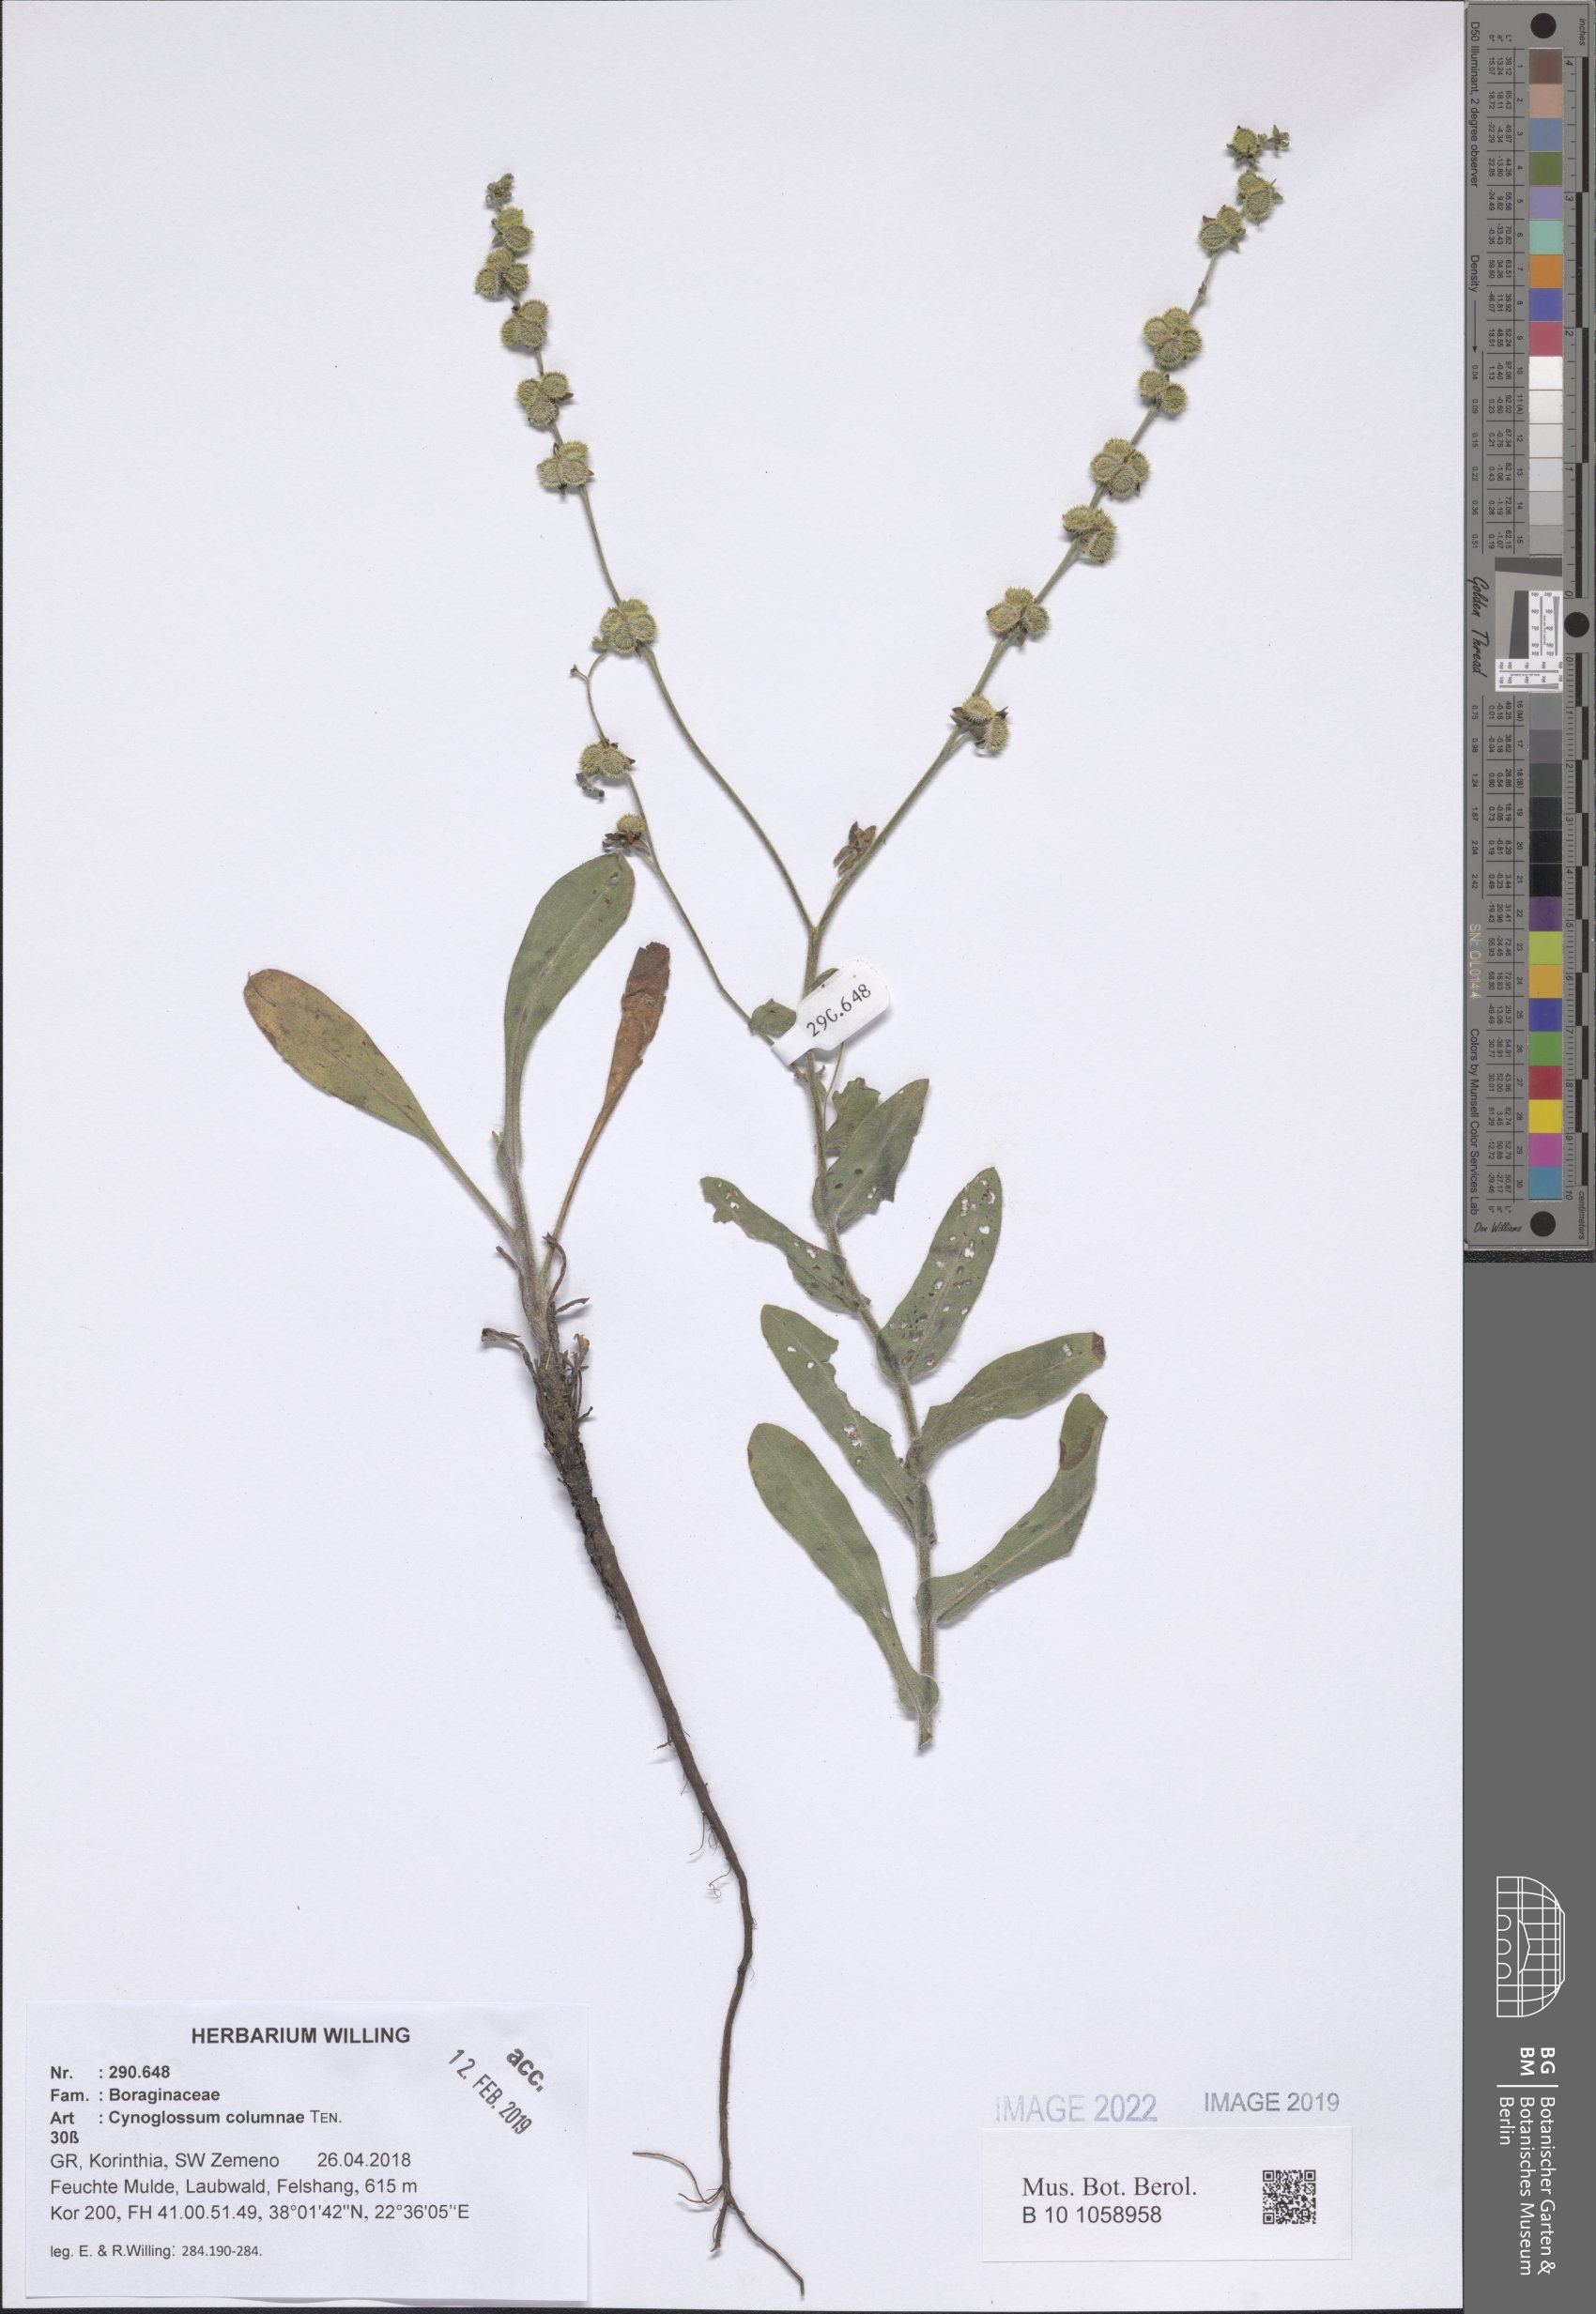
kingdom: Plantae
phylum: Tracheophyta
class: Magnoliopsida
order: Boraginales
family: Boraginaceae
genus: Rindera
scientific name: Rindera columnae
